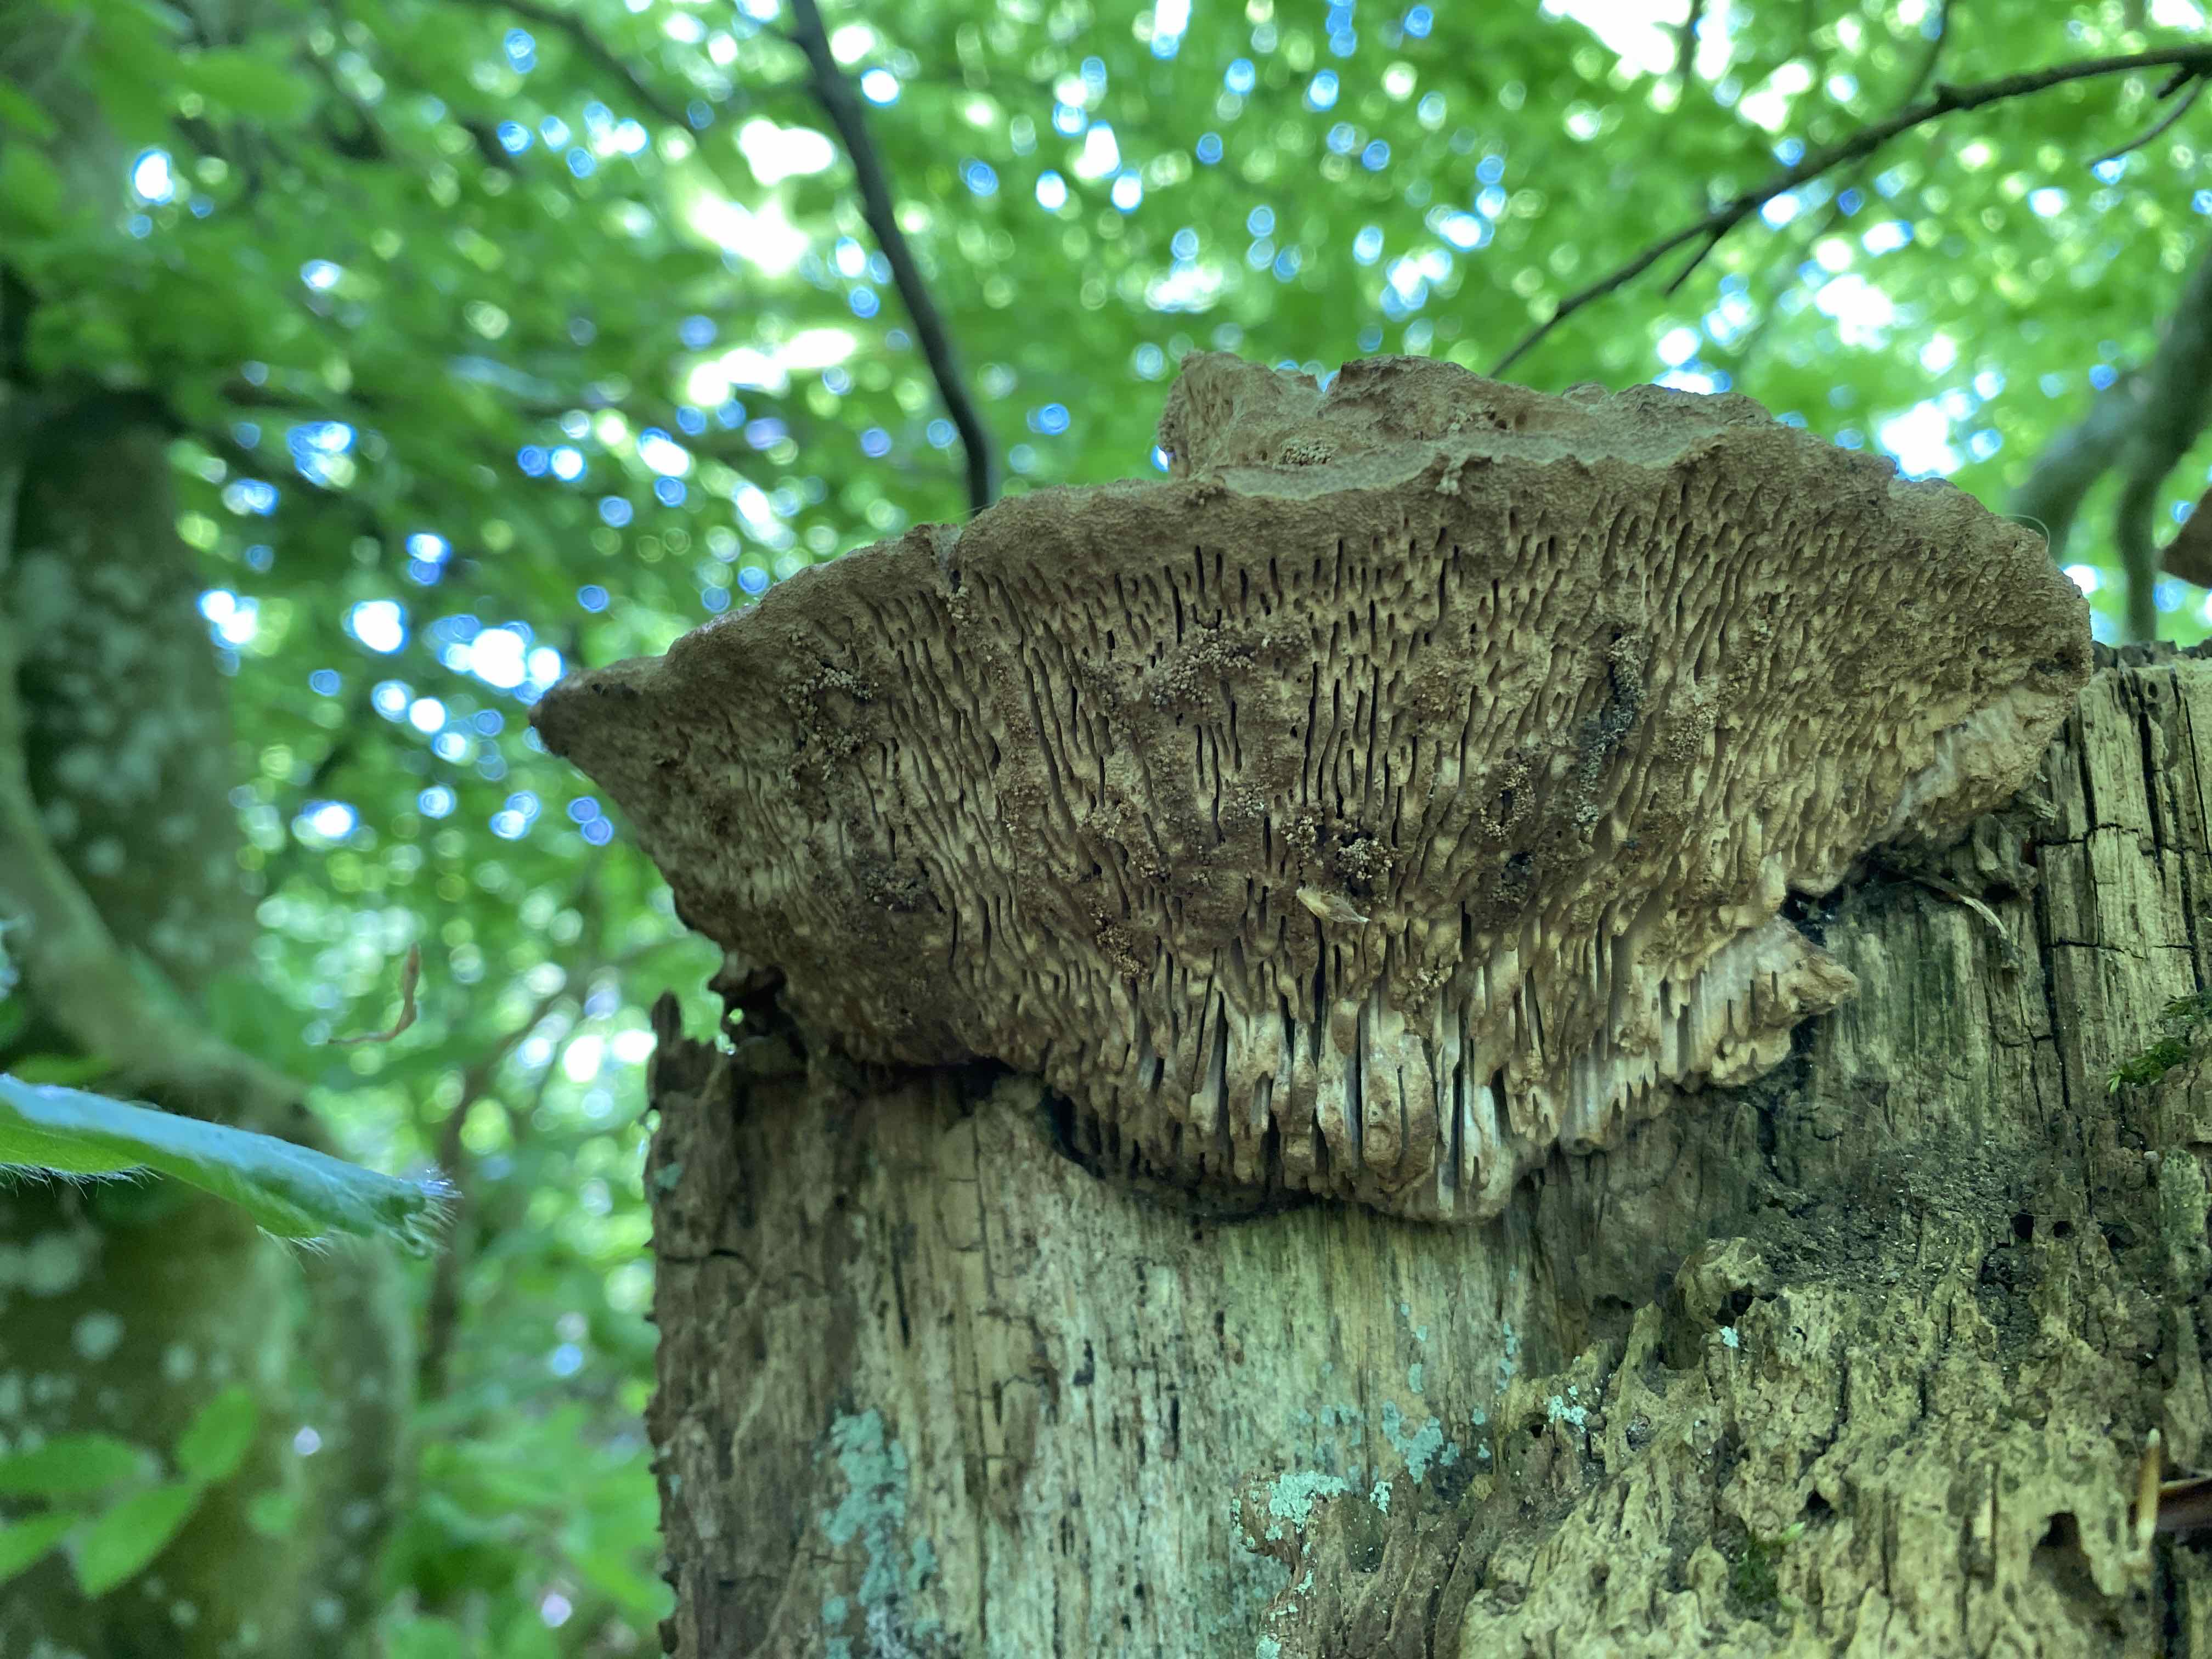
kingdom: Fungi
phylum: Basidiomycota
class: Agaricomycetes
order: Polyporales
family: Fomitopsidaceae
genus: Daedalea
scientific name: Daedalea quercina
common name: ege-labyrintsvamp
